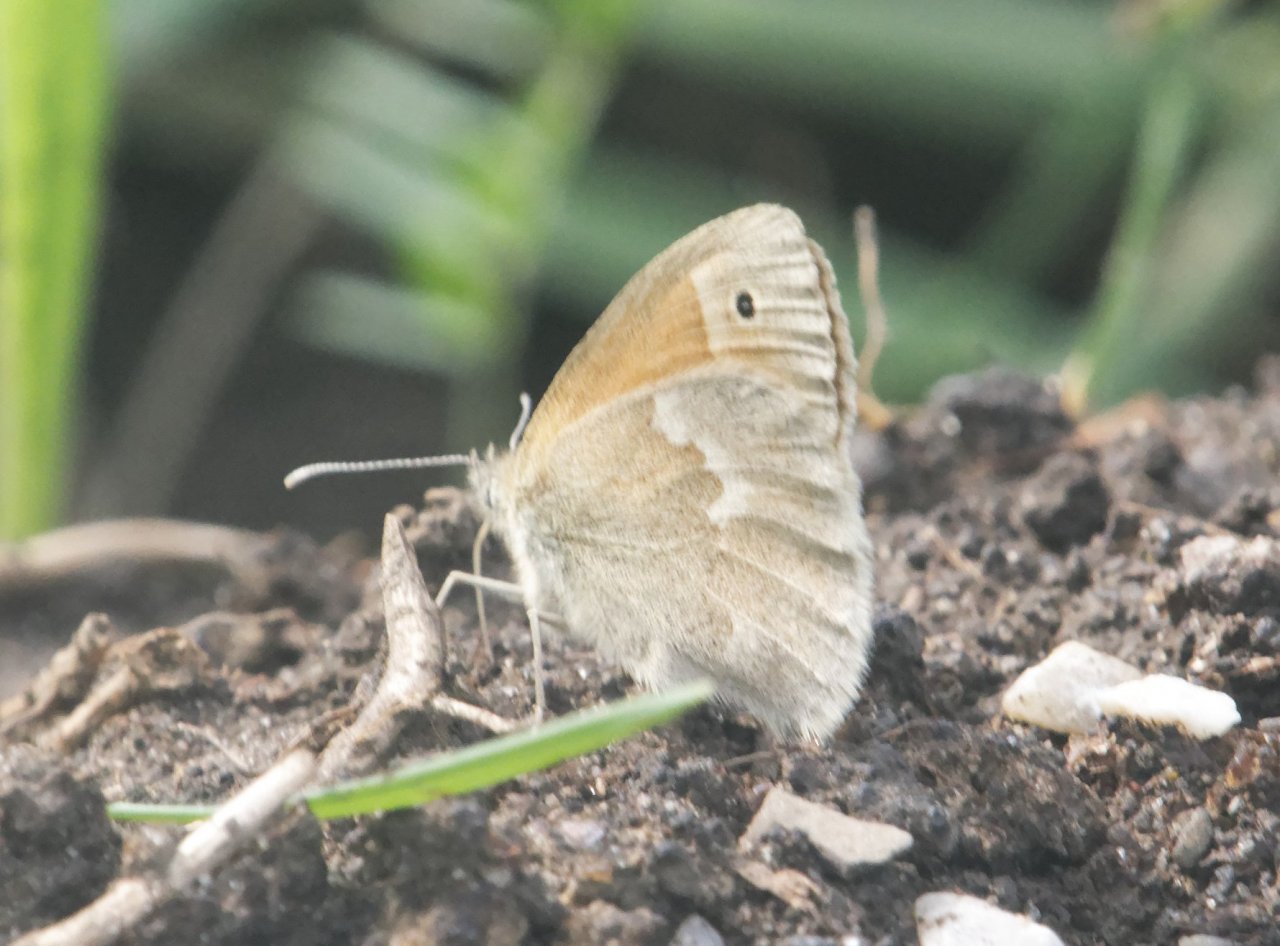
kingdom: Animalia
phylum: Arthropoda
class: Insecta
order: Lepidoptera
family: Nymphalidae
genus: Coenonympha
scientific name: Coenonympha tullia
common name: Large Heath
